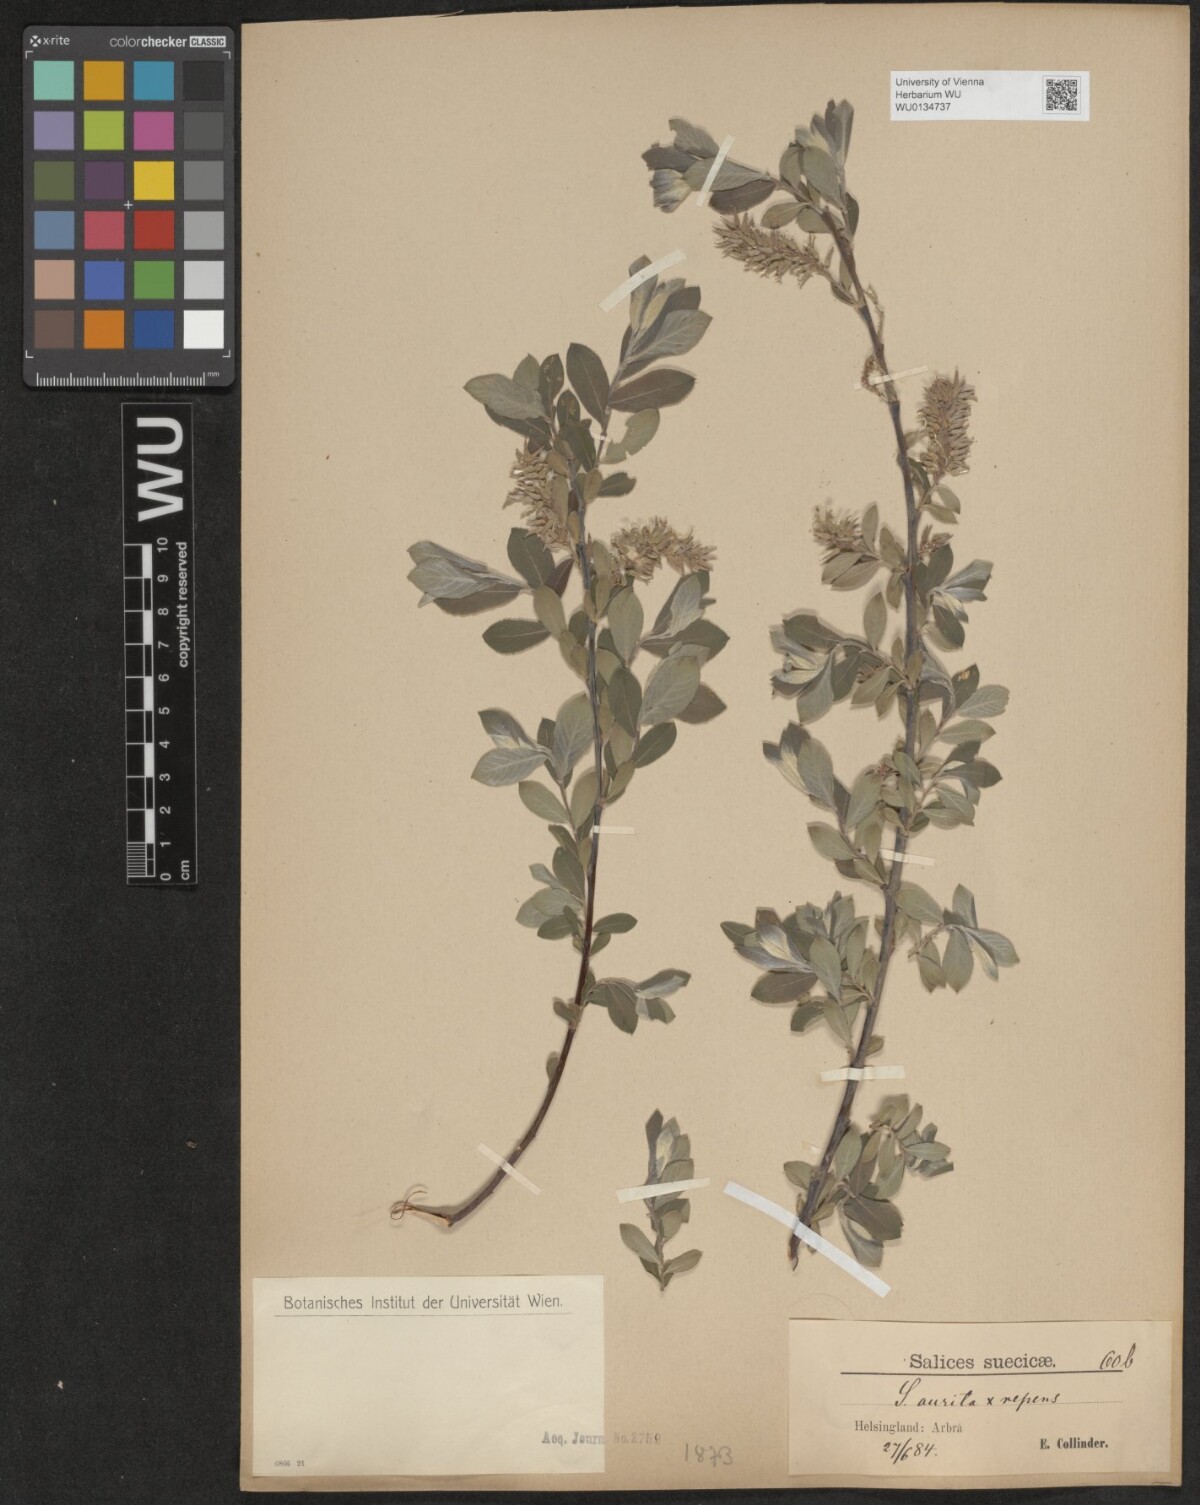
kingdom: Plantae
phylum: Tracheophyta
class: Magnoliopsida
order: Malpighiales
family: Salicaceae
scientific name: Salicaceae
